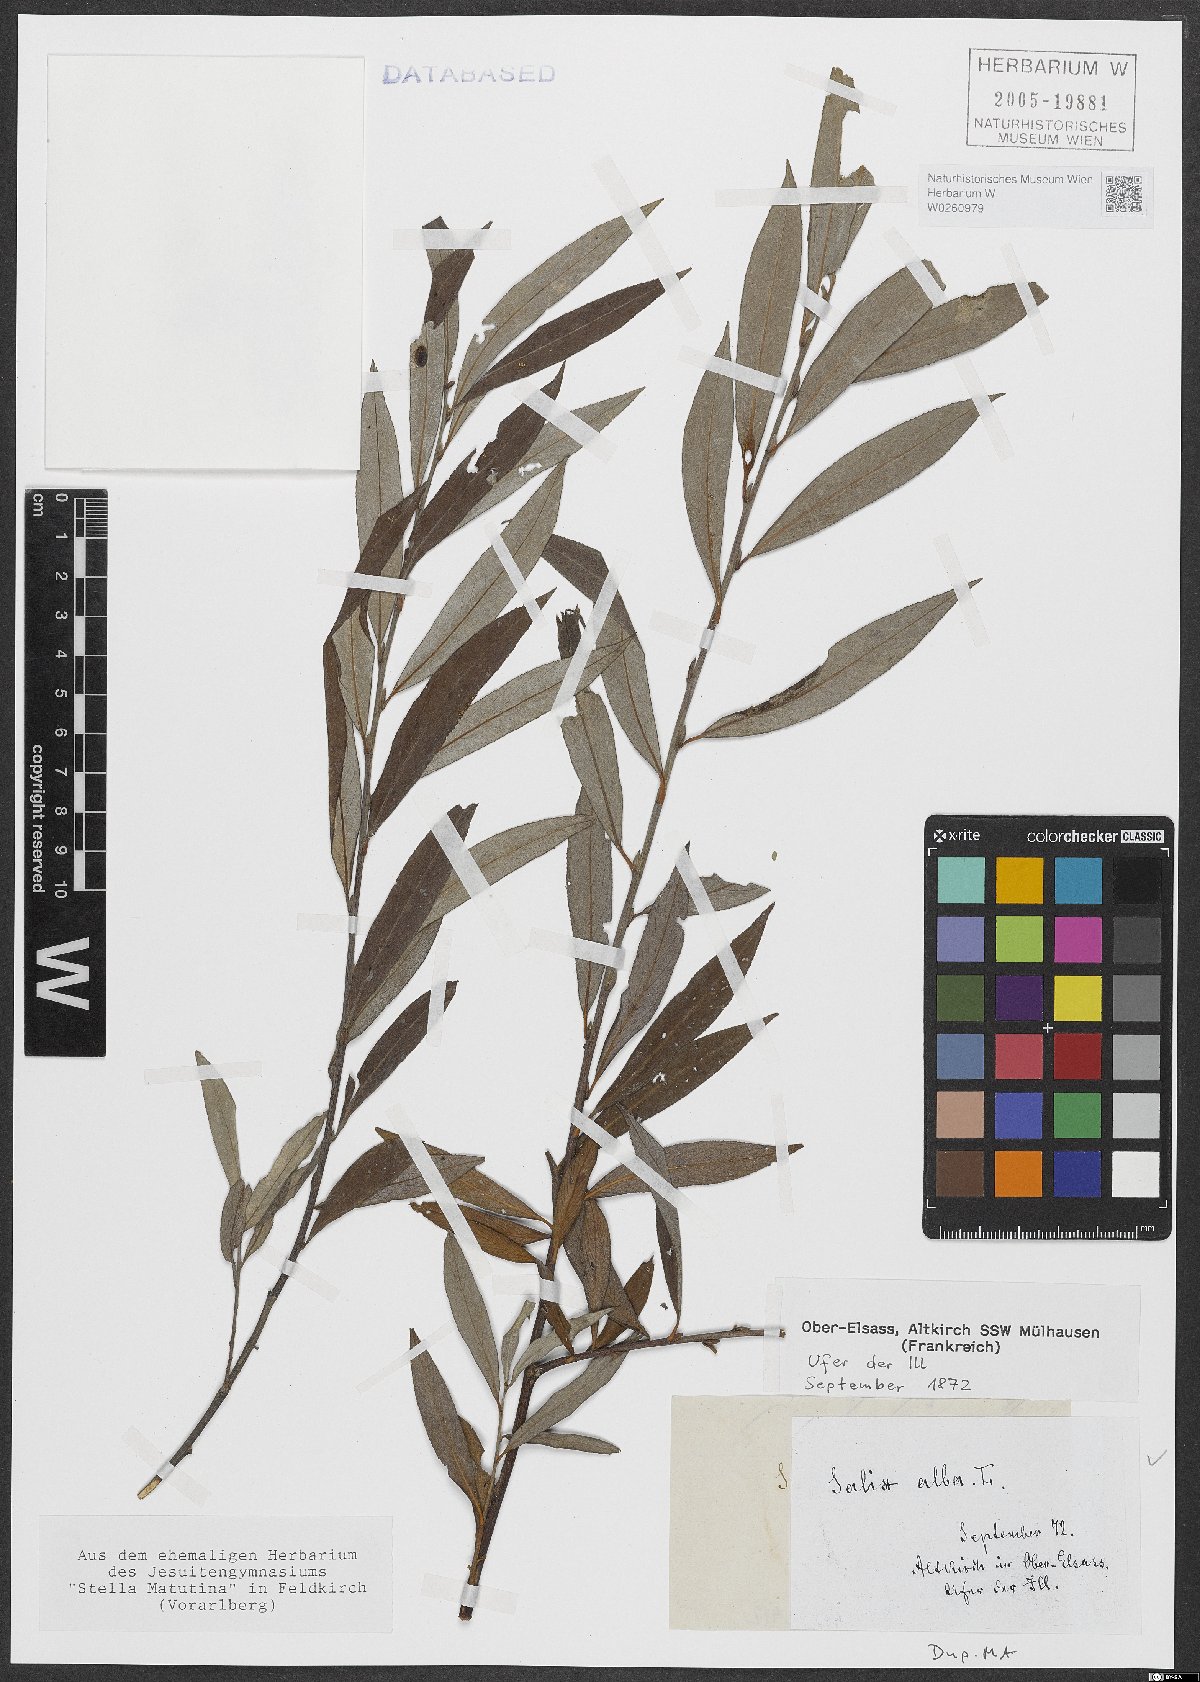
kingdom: Plantae
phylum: Tracheophyta
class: Magnoliopsida
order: Malpighiales
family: Salicaceae
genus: Salix
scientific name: Salix alba
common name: White willow
